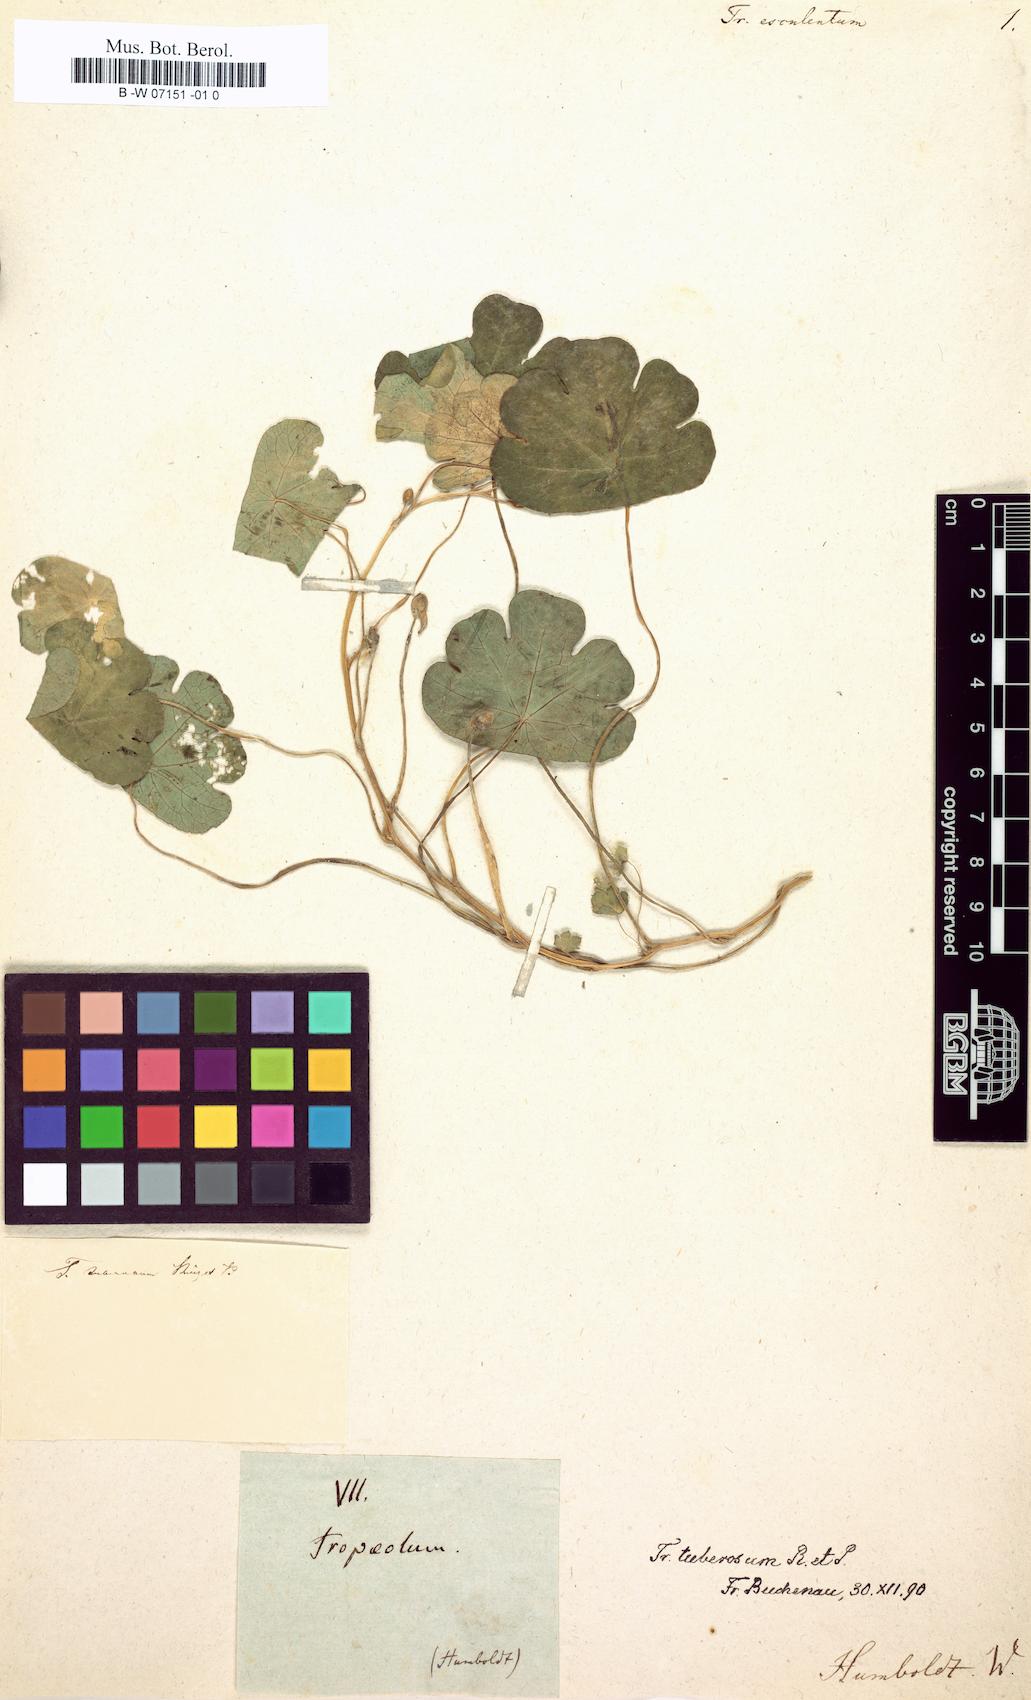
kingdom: Plantae
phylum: Tracheophyta
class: Magnoliopsida
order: Brassicales
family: Tropaeolaceae
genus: Tropaeolum
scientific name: Tropaeolum
